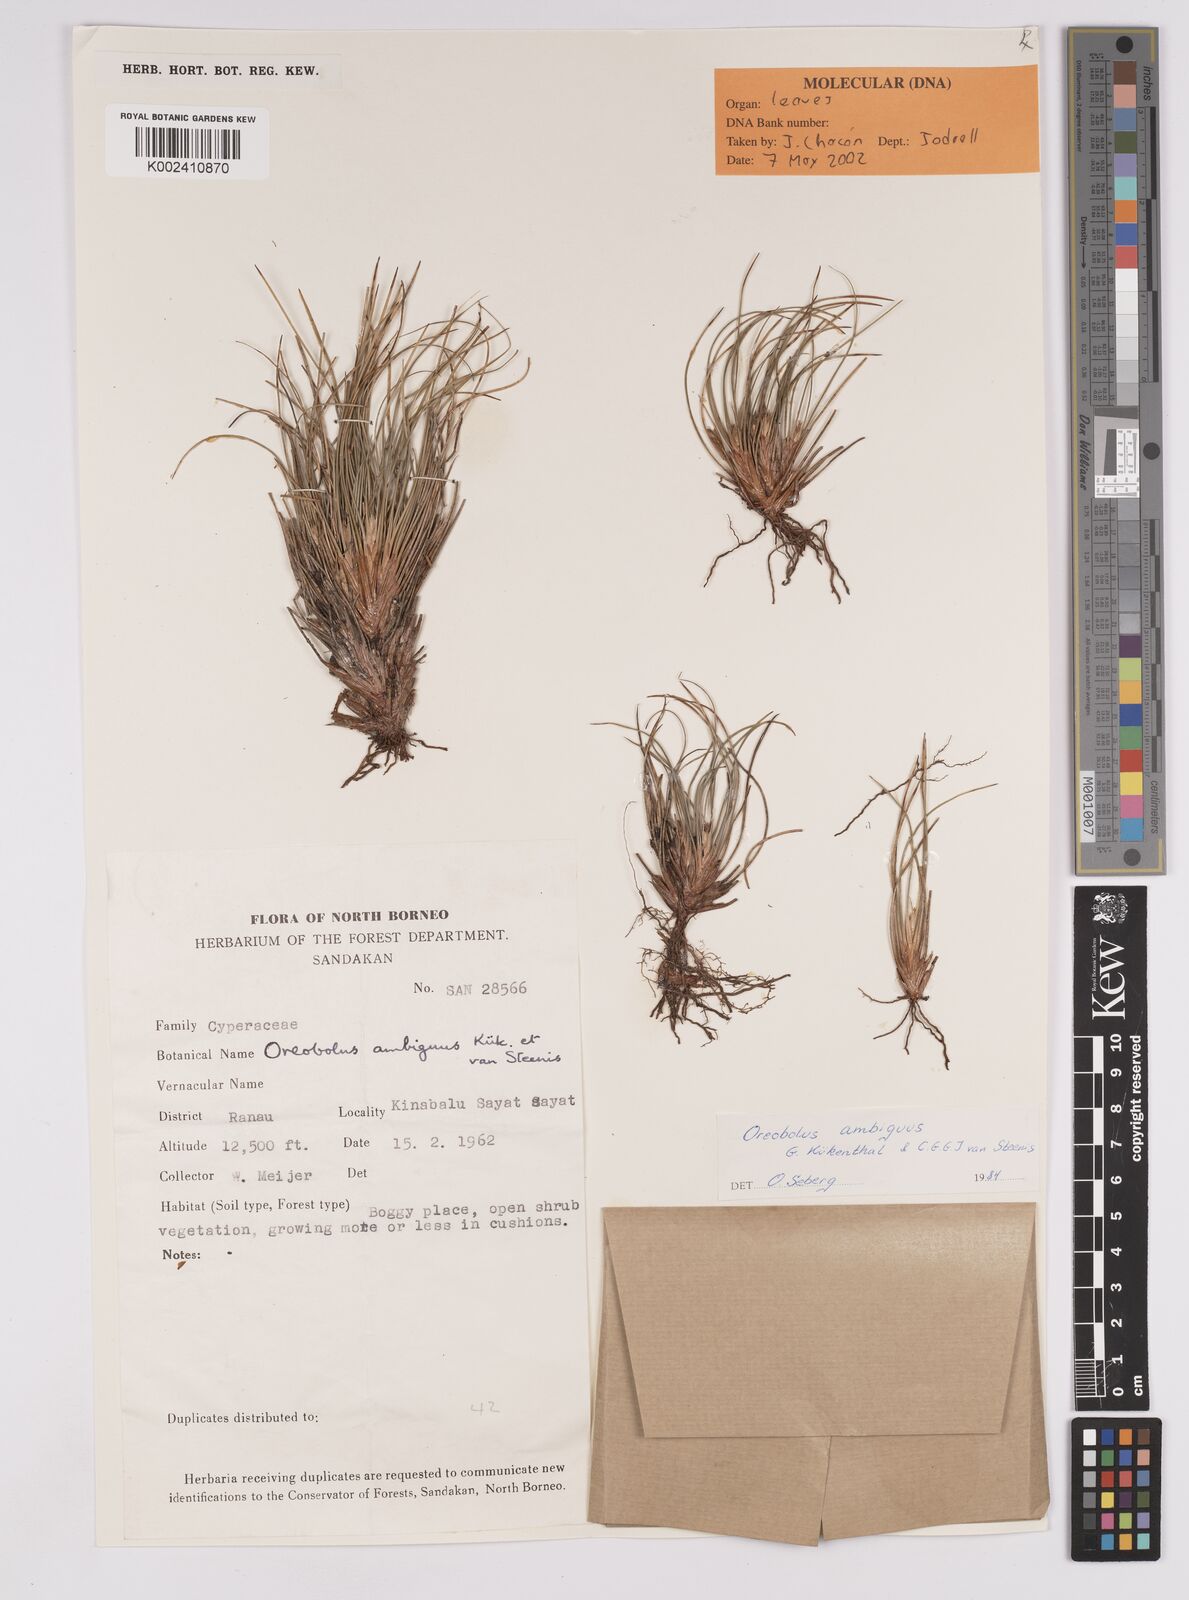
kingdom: Plantae
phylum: Tracheophyta
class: Liliopsida
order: Poales
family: Cyperaceae
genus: Oreobolus
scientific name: Oreobolus ambiguus
